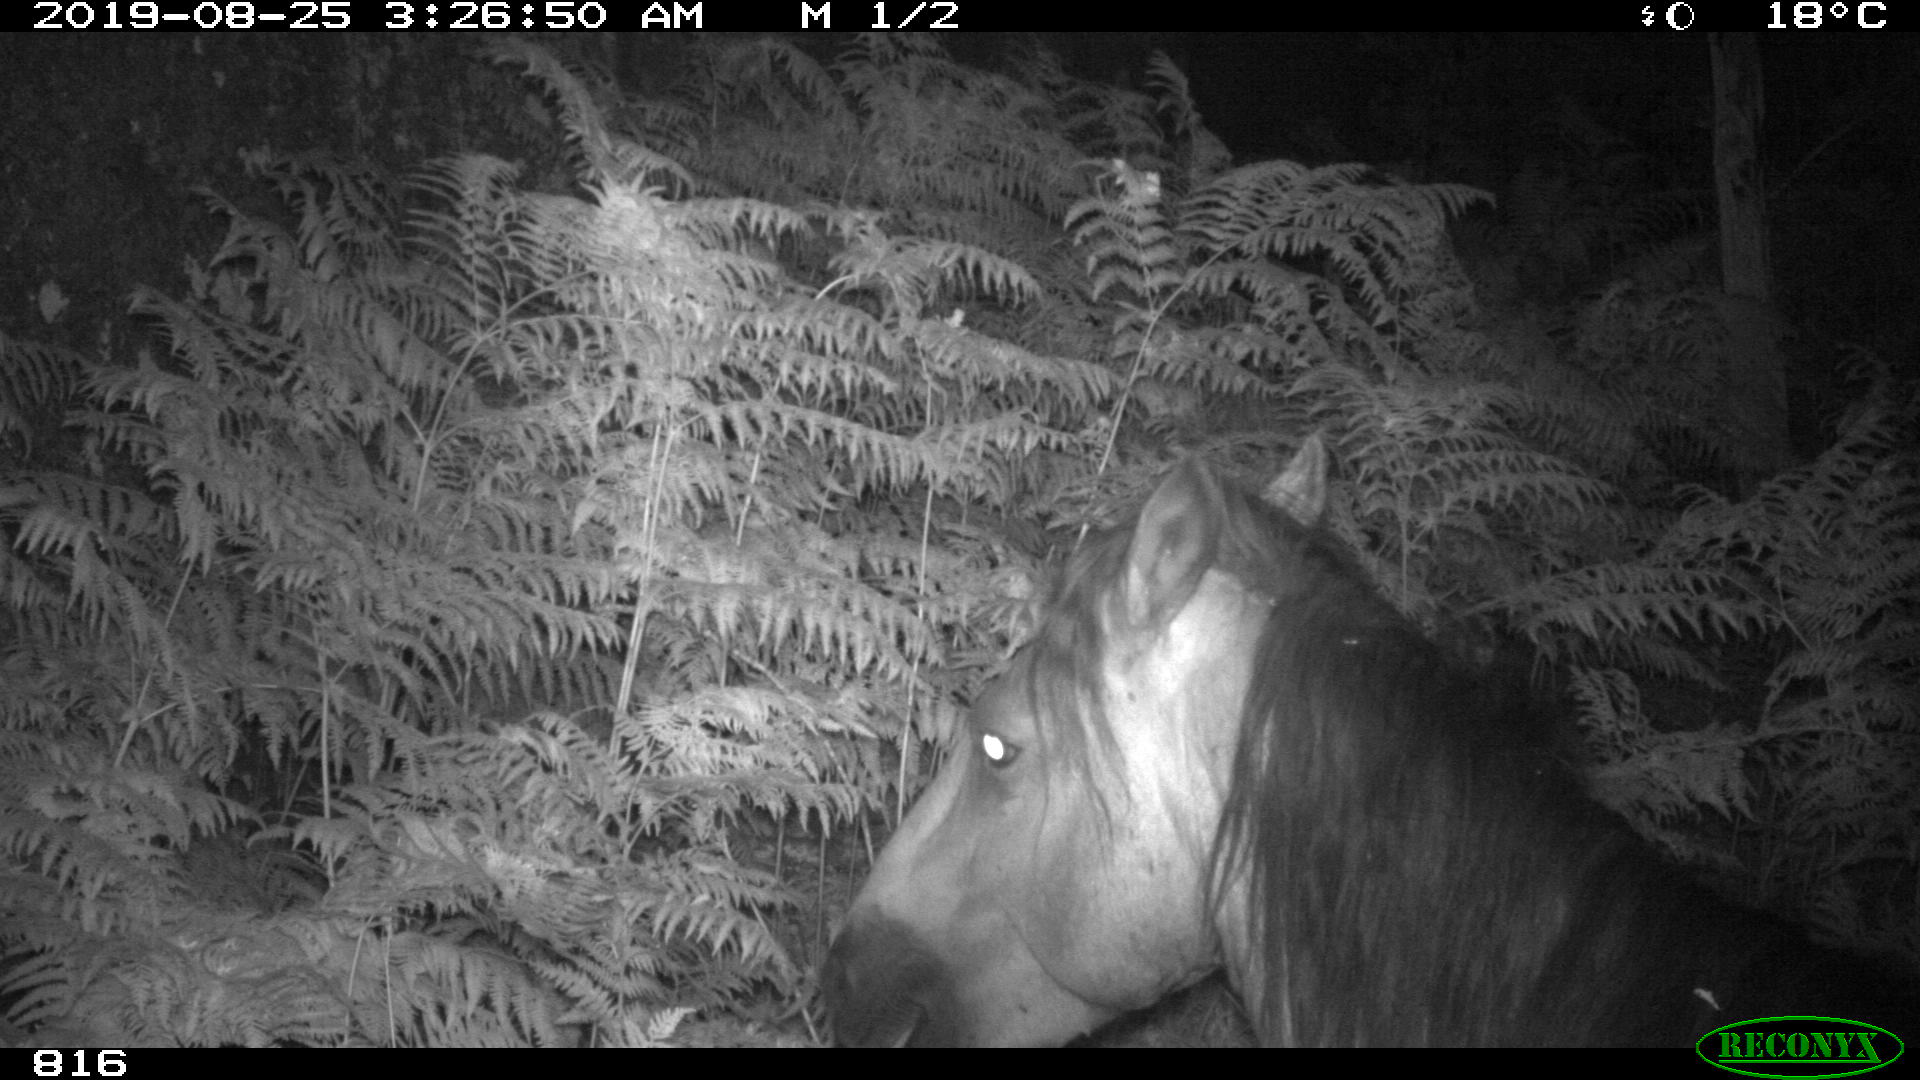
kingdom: Animalia
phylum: Chordata
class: Mammalia
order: Perissodactyla
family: Equidae
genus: Equus
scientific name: Equus caballus
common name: Horse
